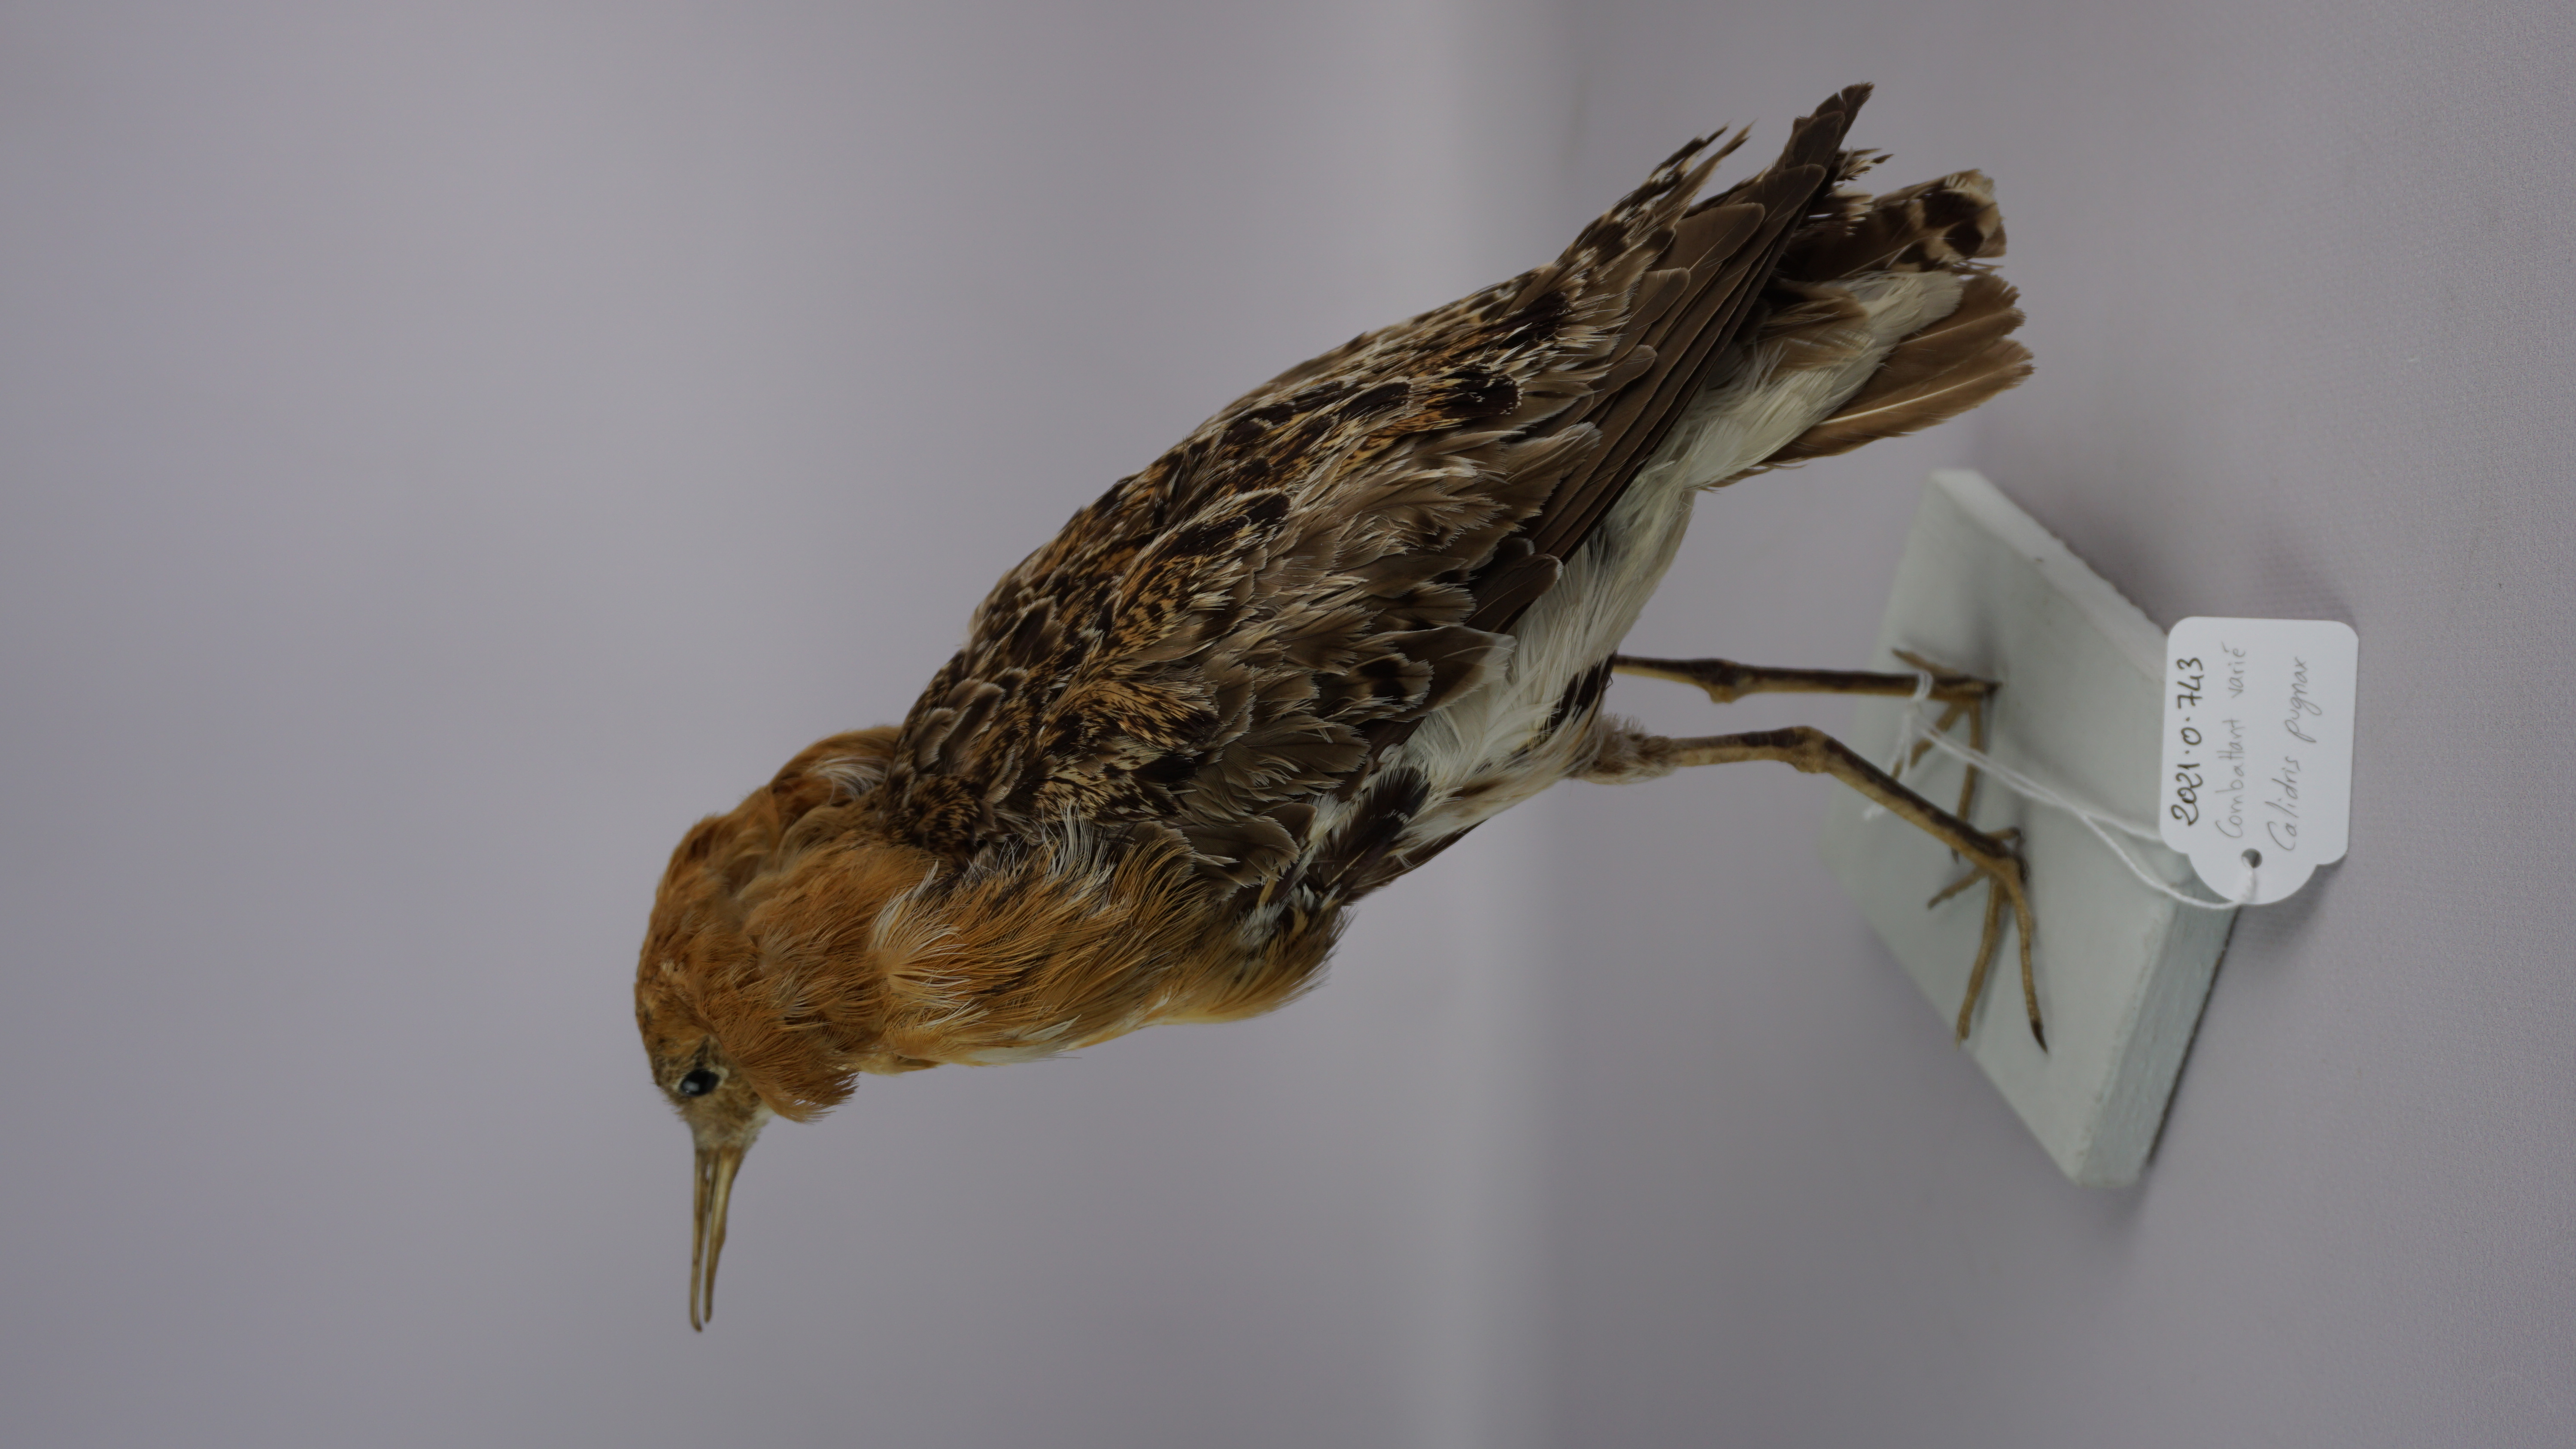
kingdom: Animalia
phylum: Chordata
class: Aves
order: Charadriiformes
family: Scolopacidae
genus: Calidris
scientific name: Calidris pugnax
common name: Ruff
